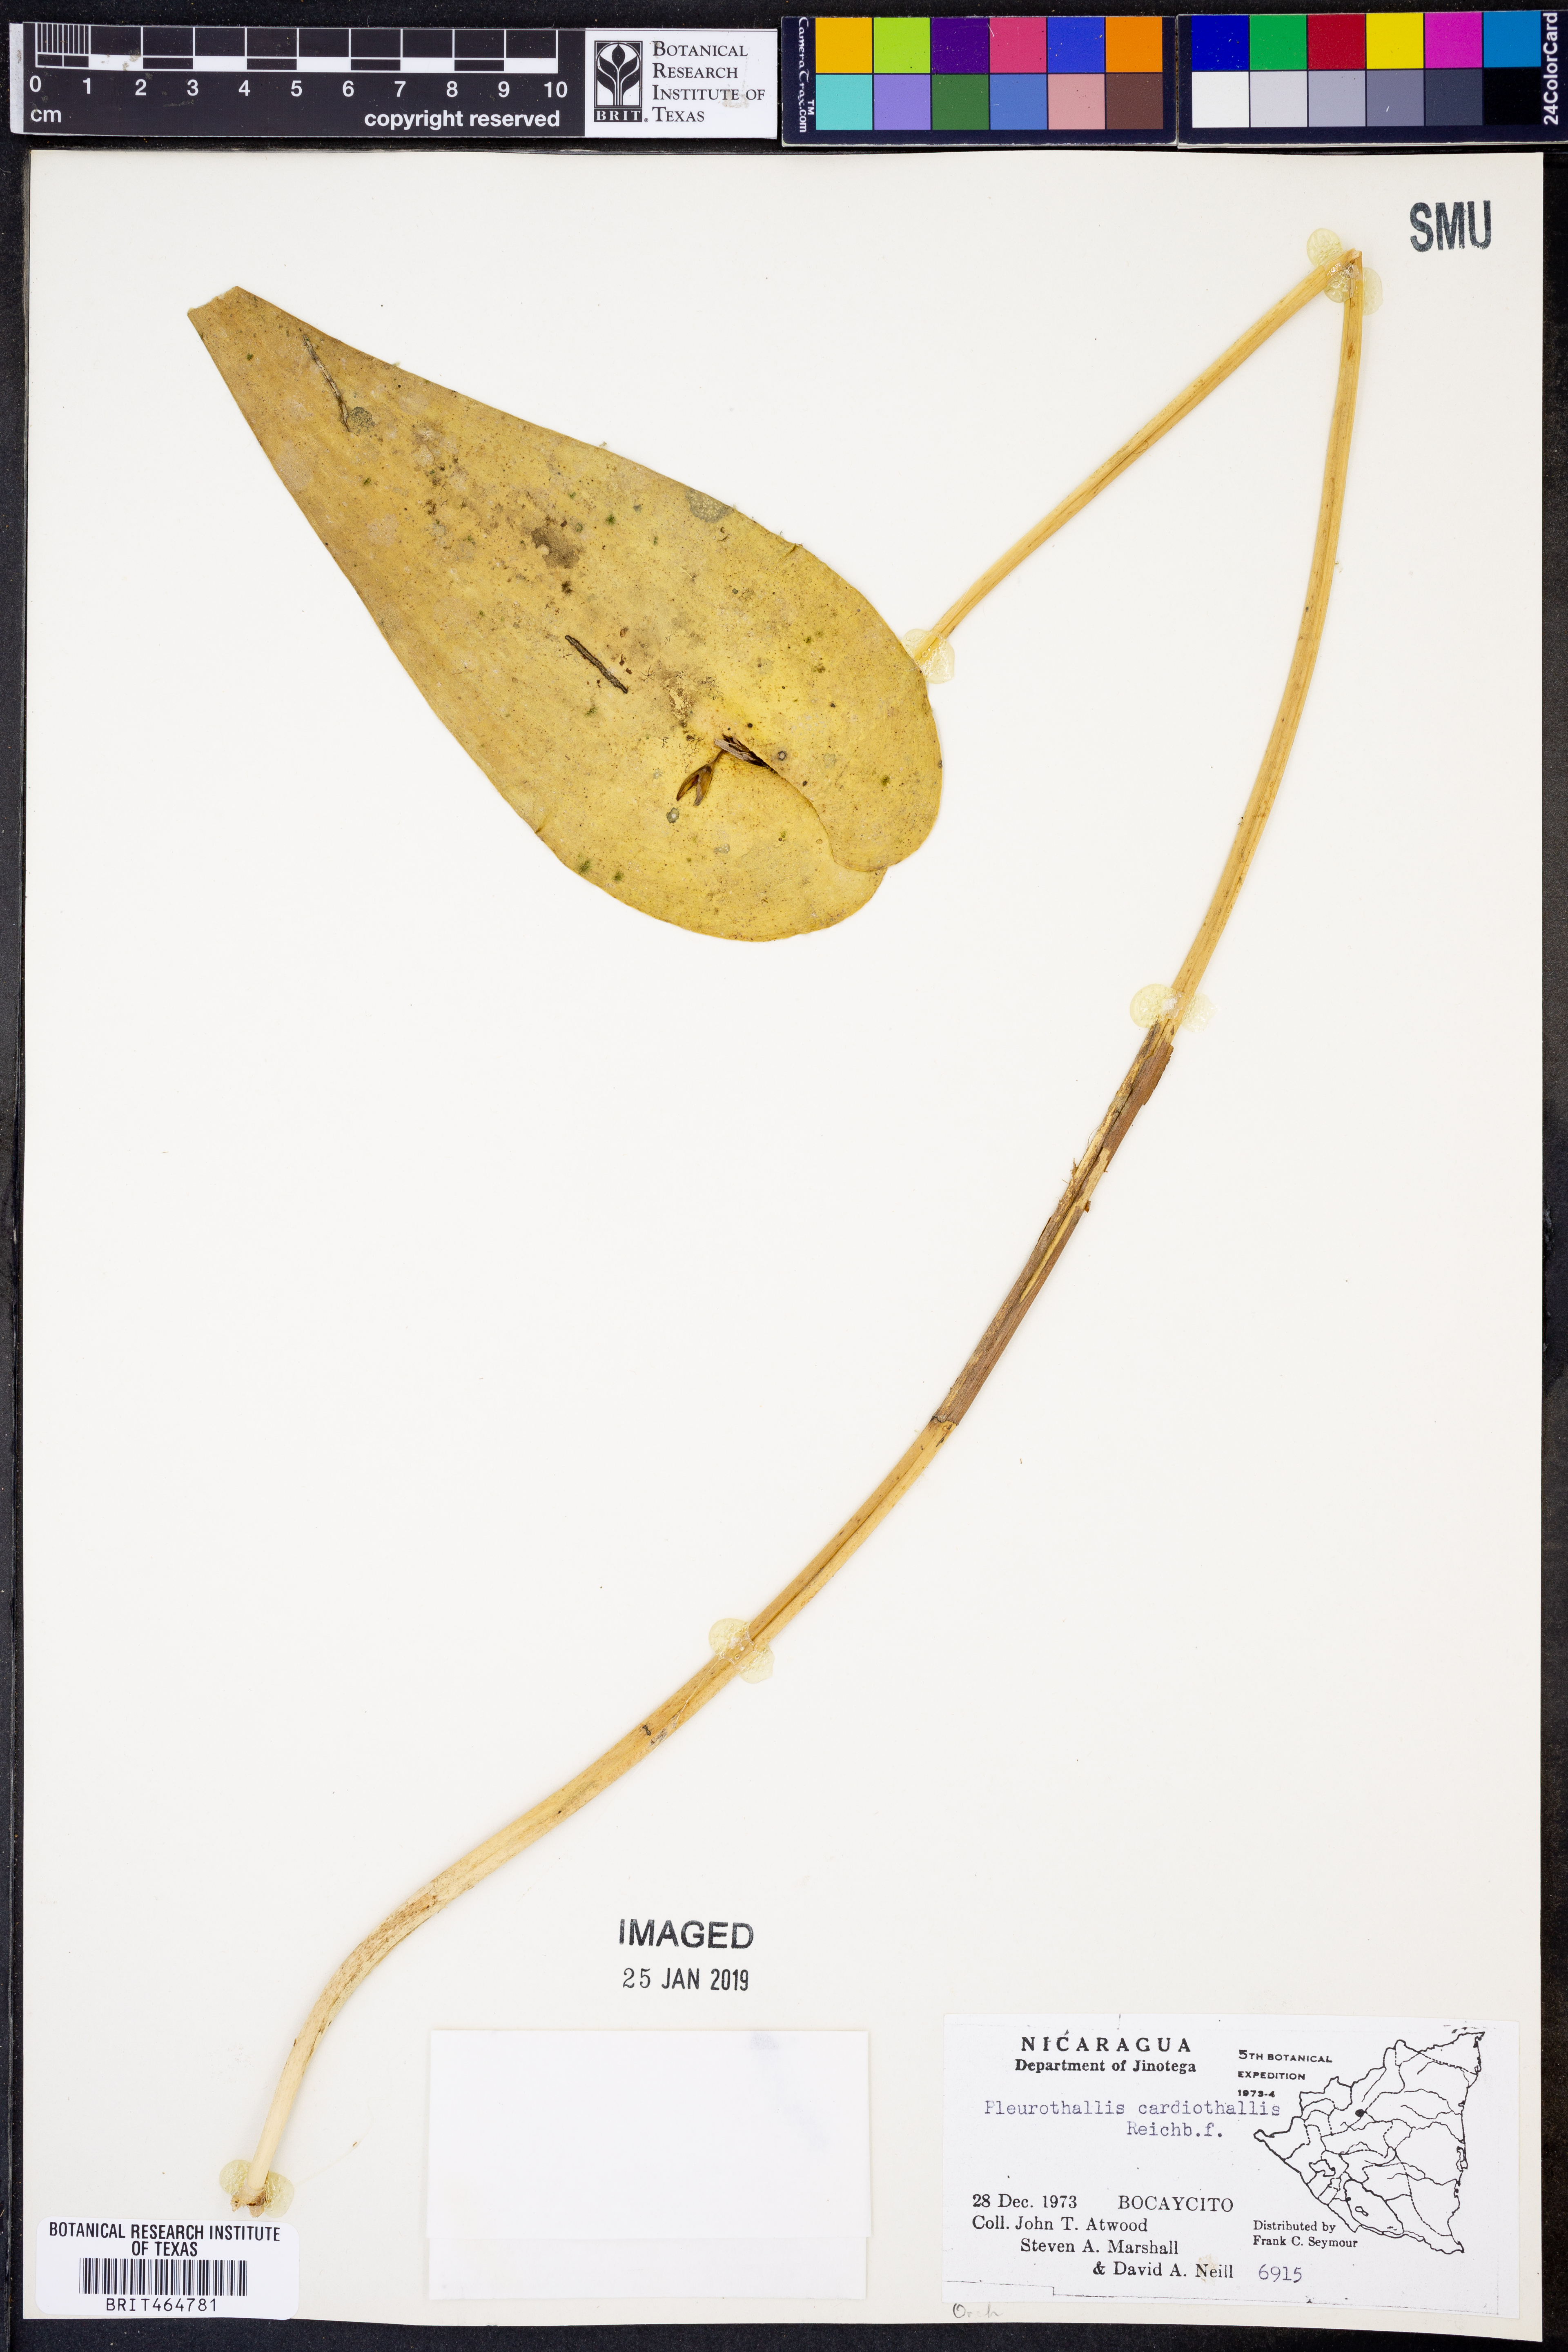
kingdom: Plantae
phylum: Tracheophyta
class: Liliopsida
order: Asparagales
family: Orchidaceae
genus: Pleurothallis
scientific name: Pleurothallis cardiothallis
